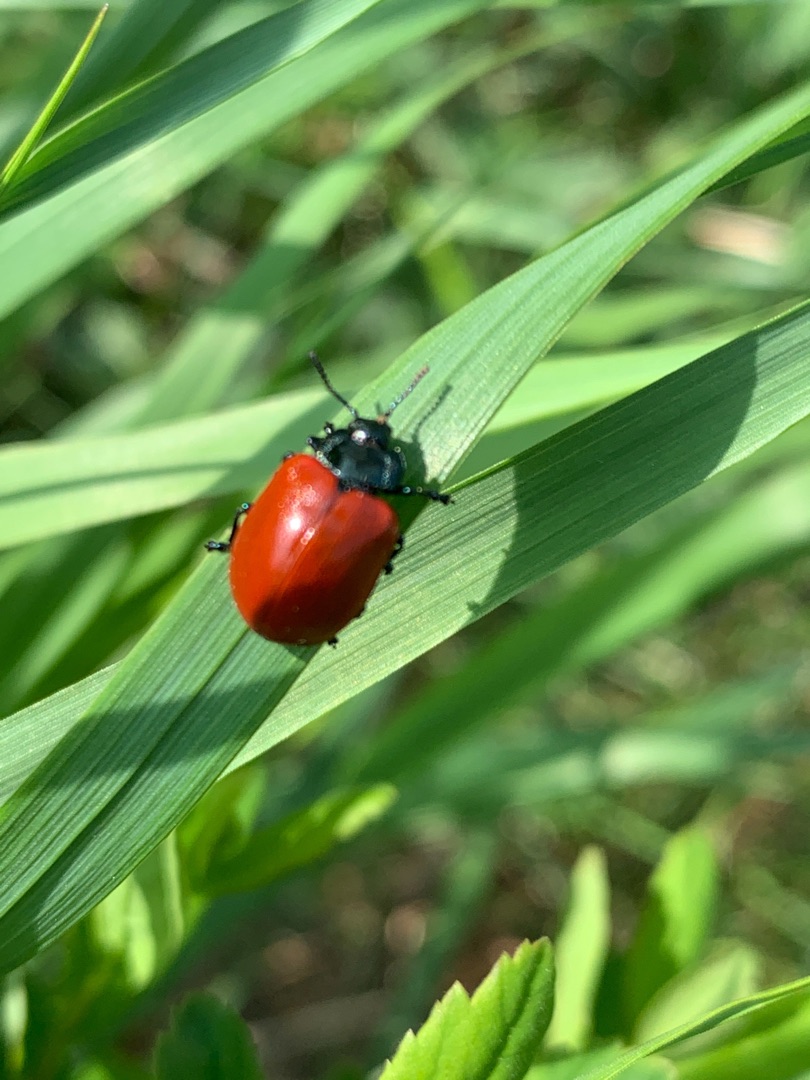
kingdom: Animalia
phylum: Arthropoda
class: Insecta
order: Coleoptera
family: Chrysomelidae
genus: Chrysomela
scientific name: Chrysomela populi
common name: Poppelbladbille
